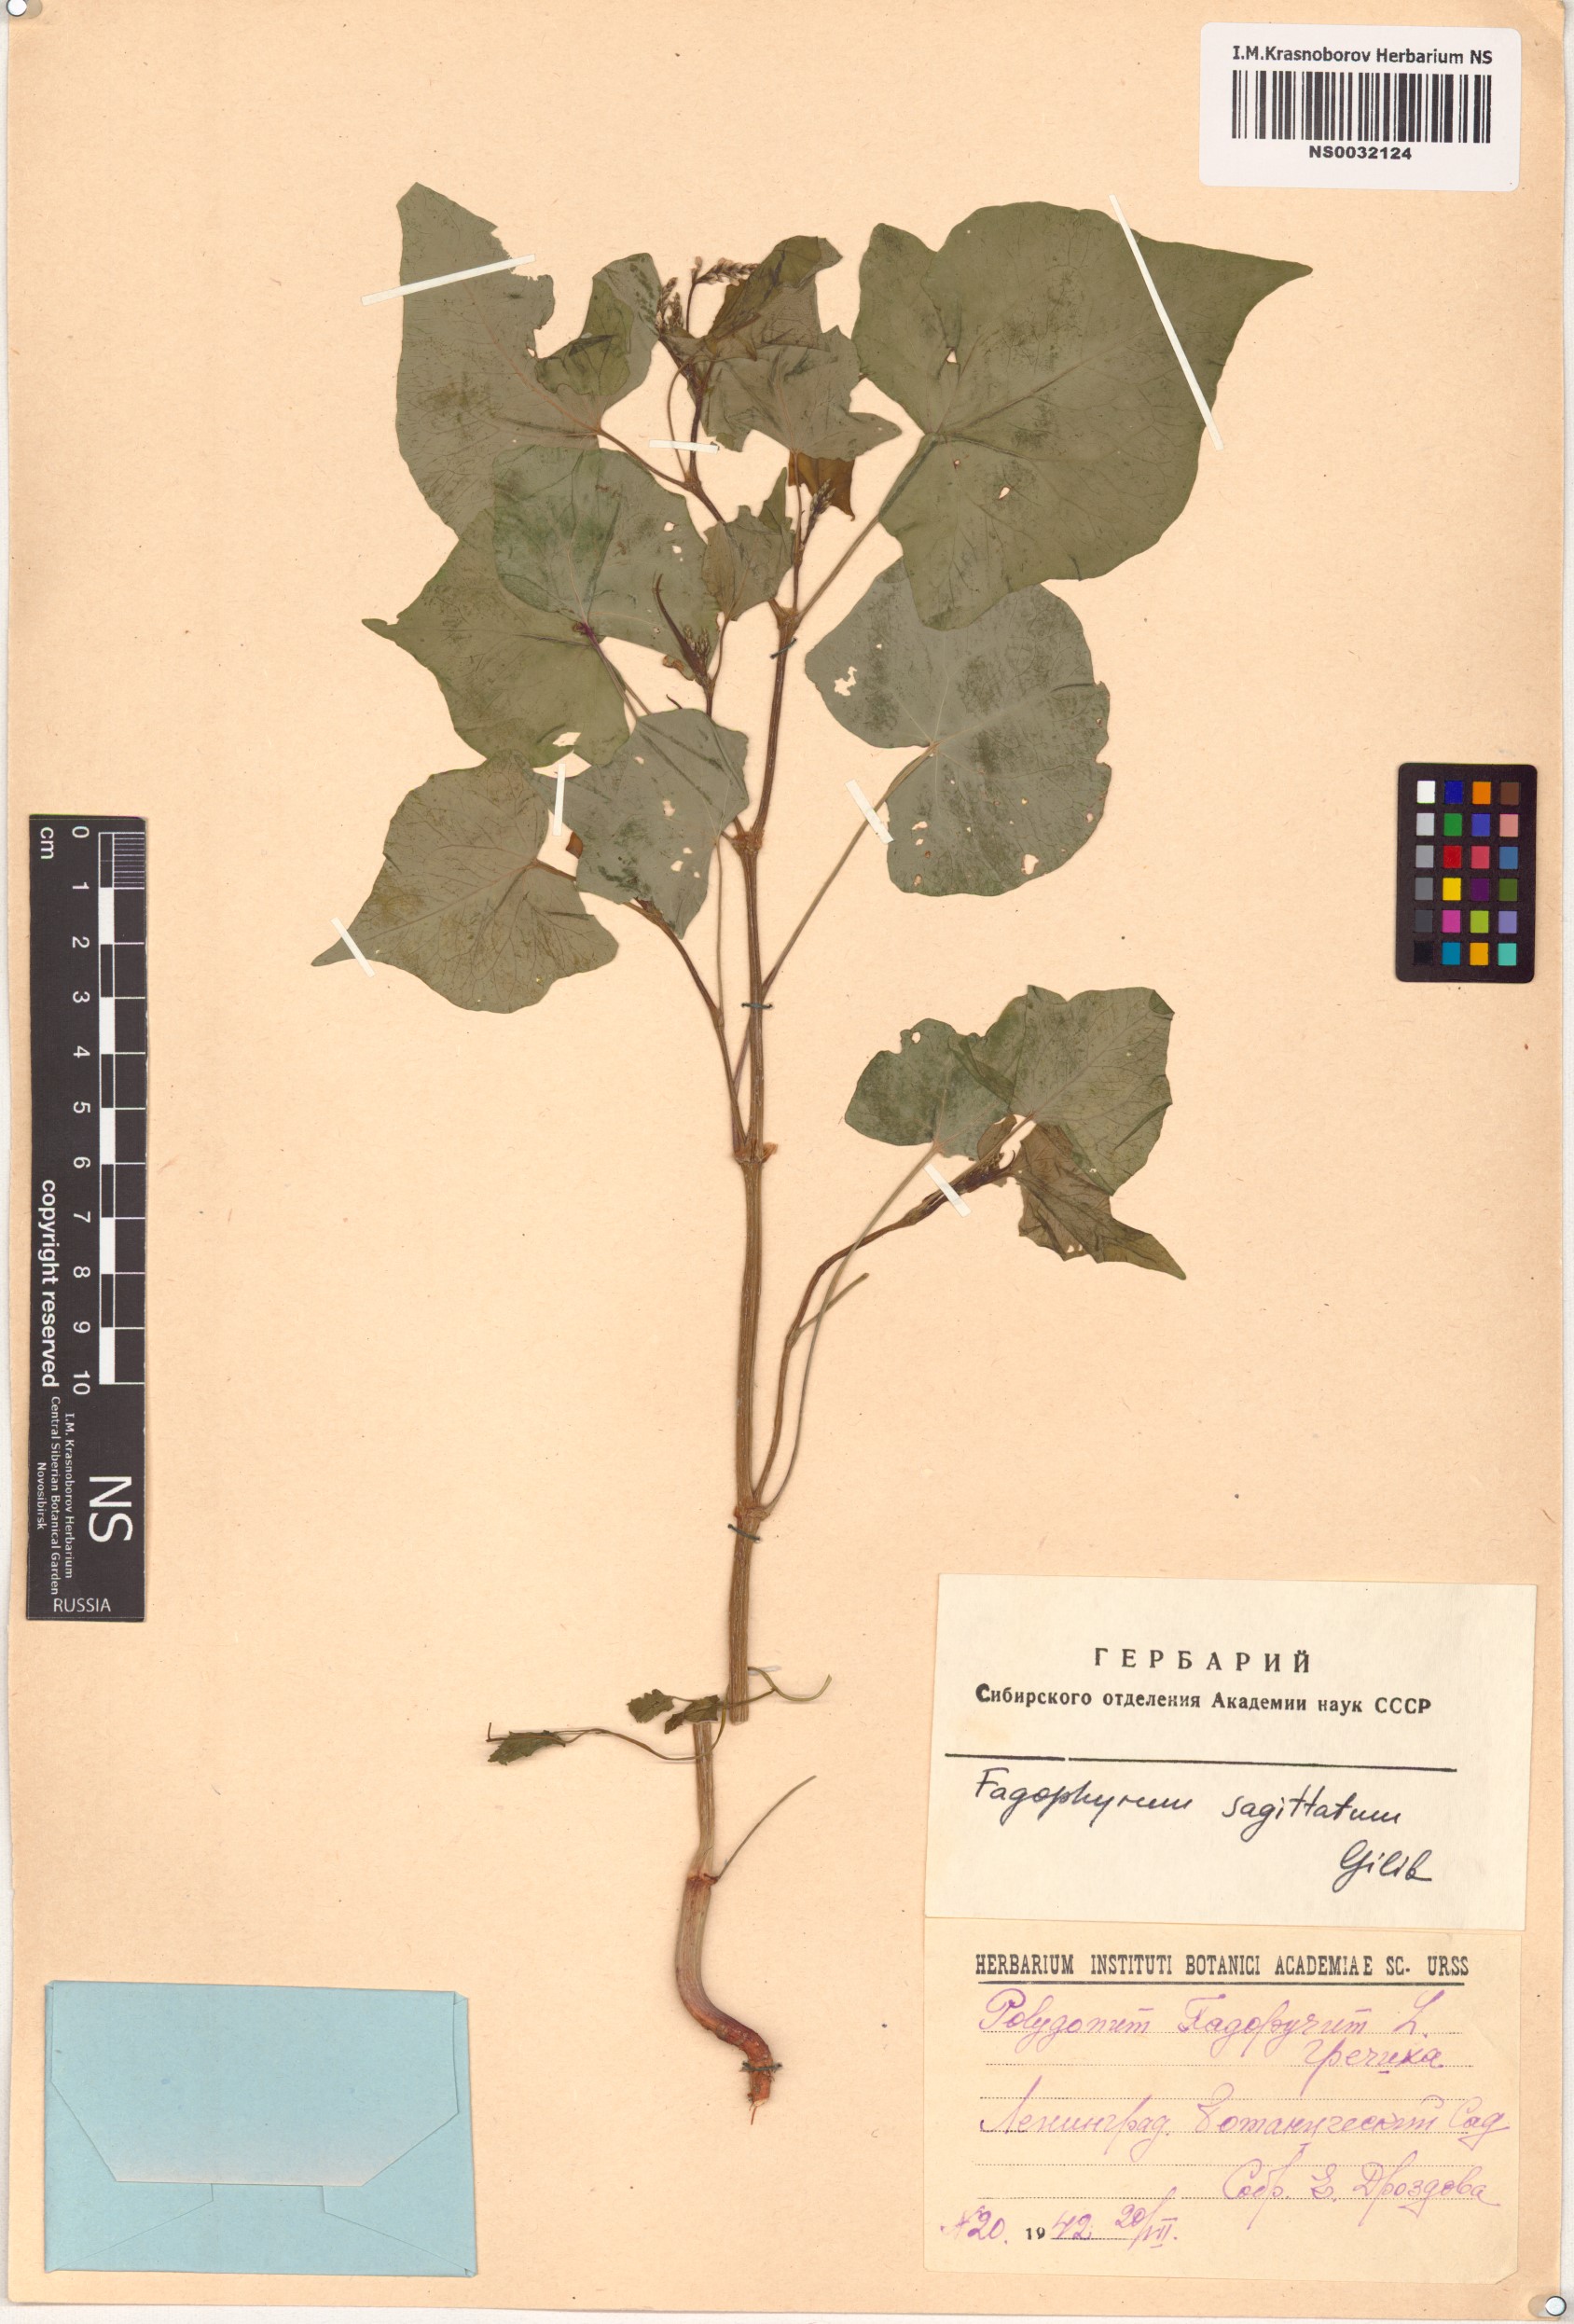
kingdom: Plantae
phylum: Tracheophyta
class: Magnoliopsida
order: Caryophyllales
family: Polygonaceae
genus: Fagopyrum
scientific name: Fagopyrum esculentum
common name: Buckwheat
